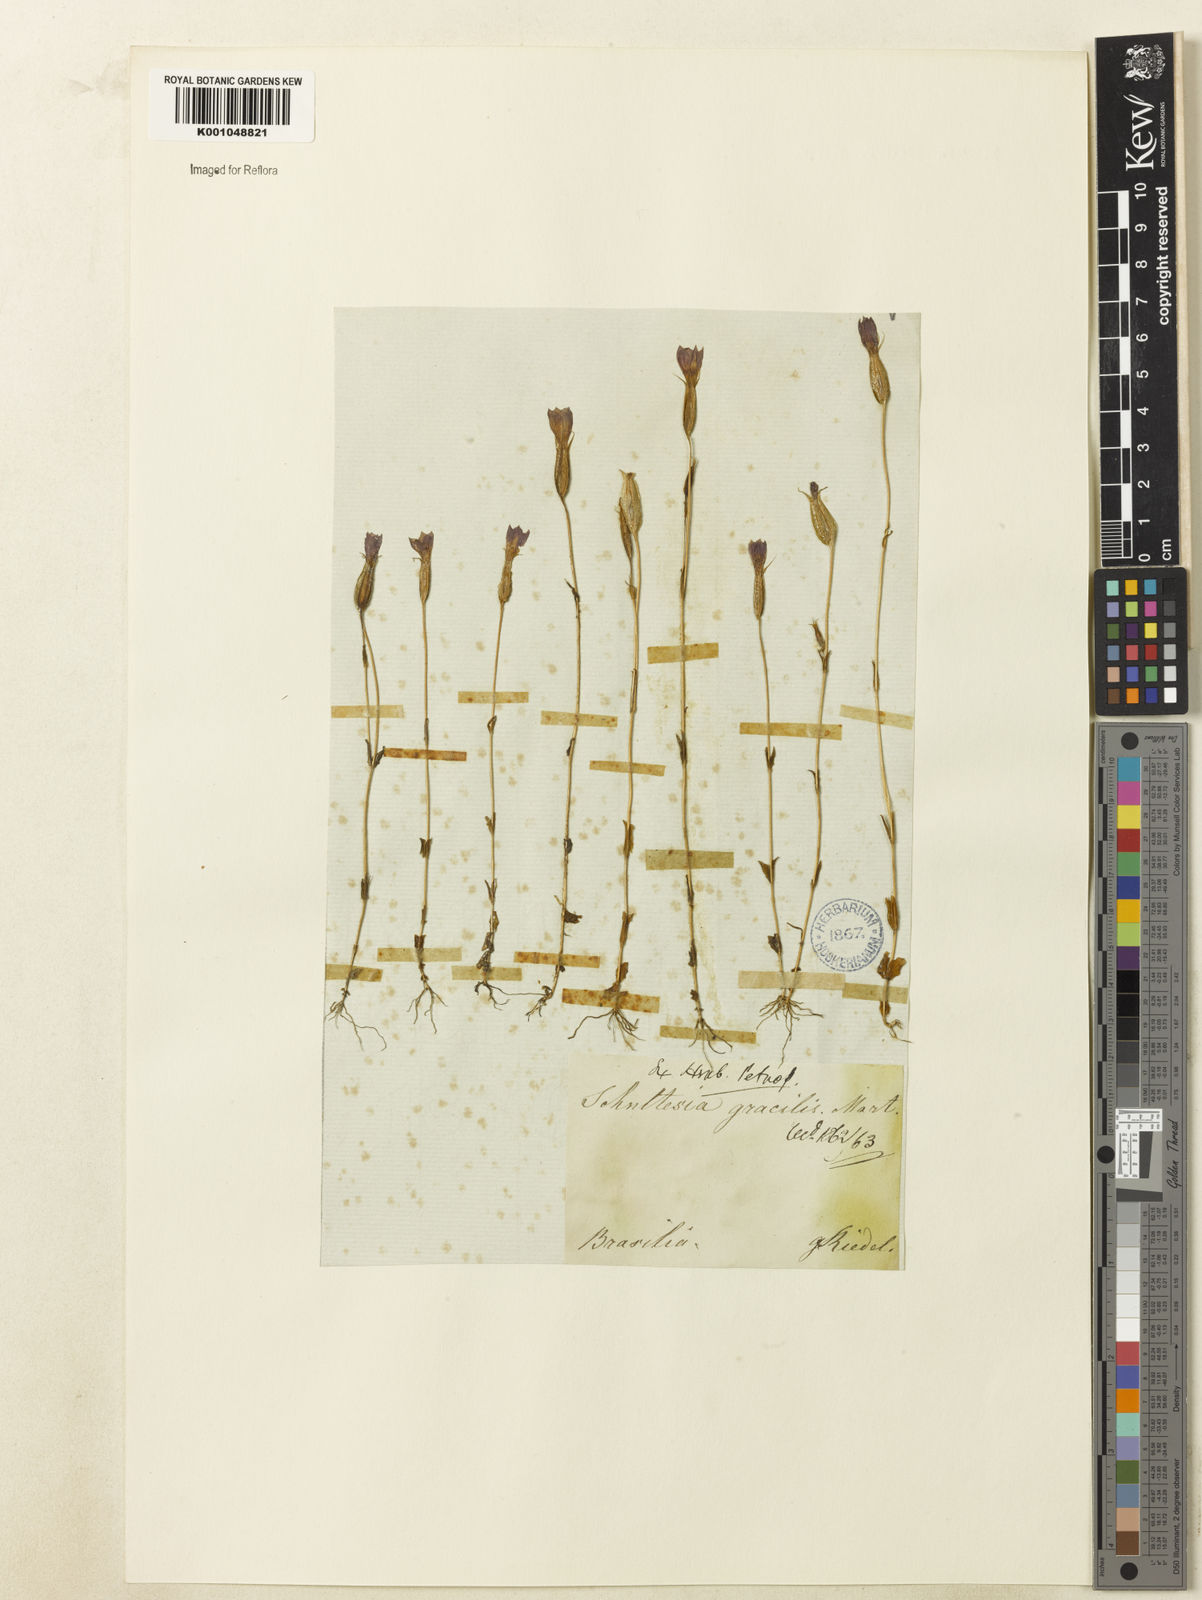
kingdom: Plantae
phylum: Tracheophyta
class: Magnoliopsida
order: Gentianales
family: Gentianaceae
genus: Schultesia
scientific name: Schultesia gracilis
